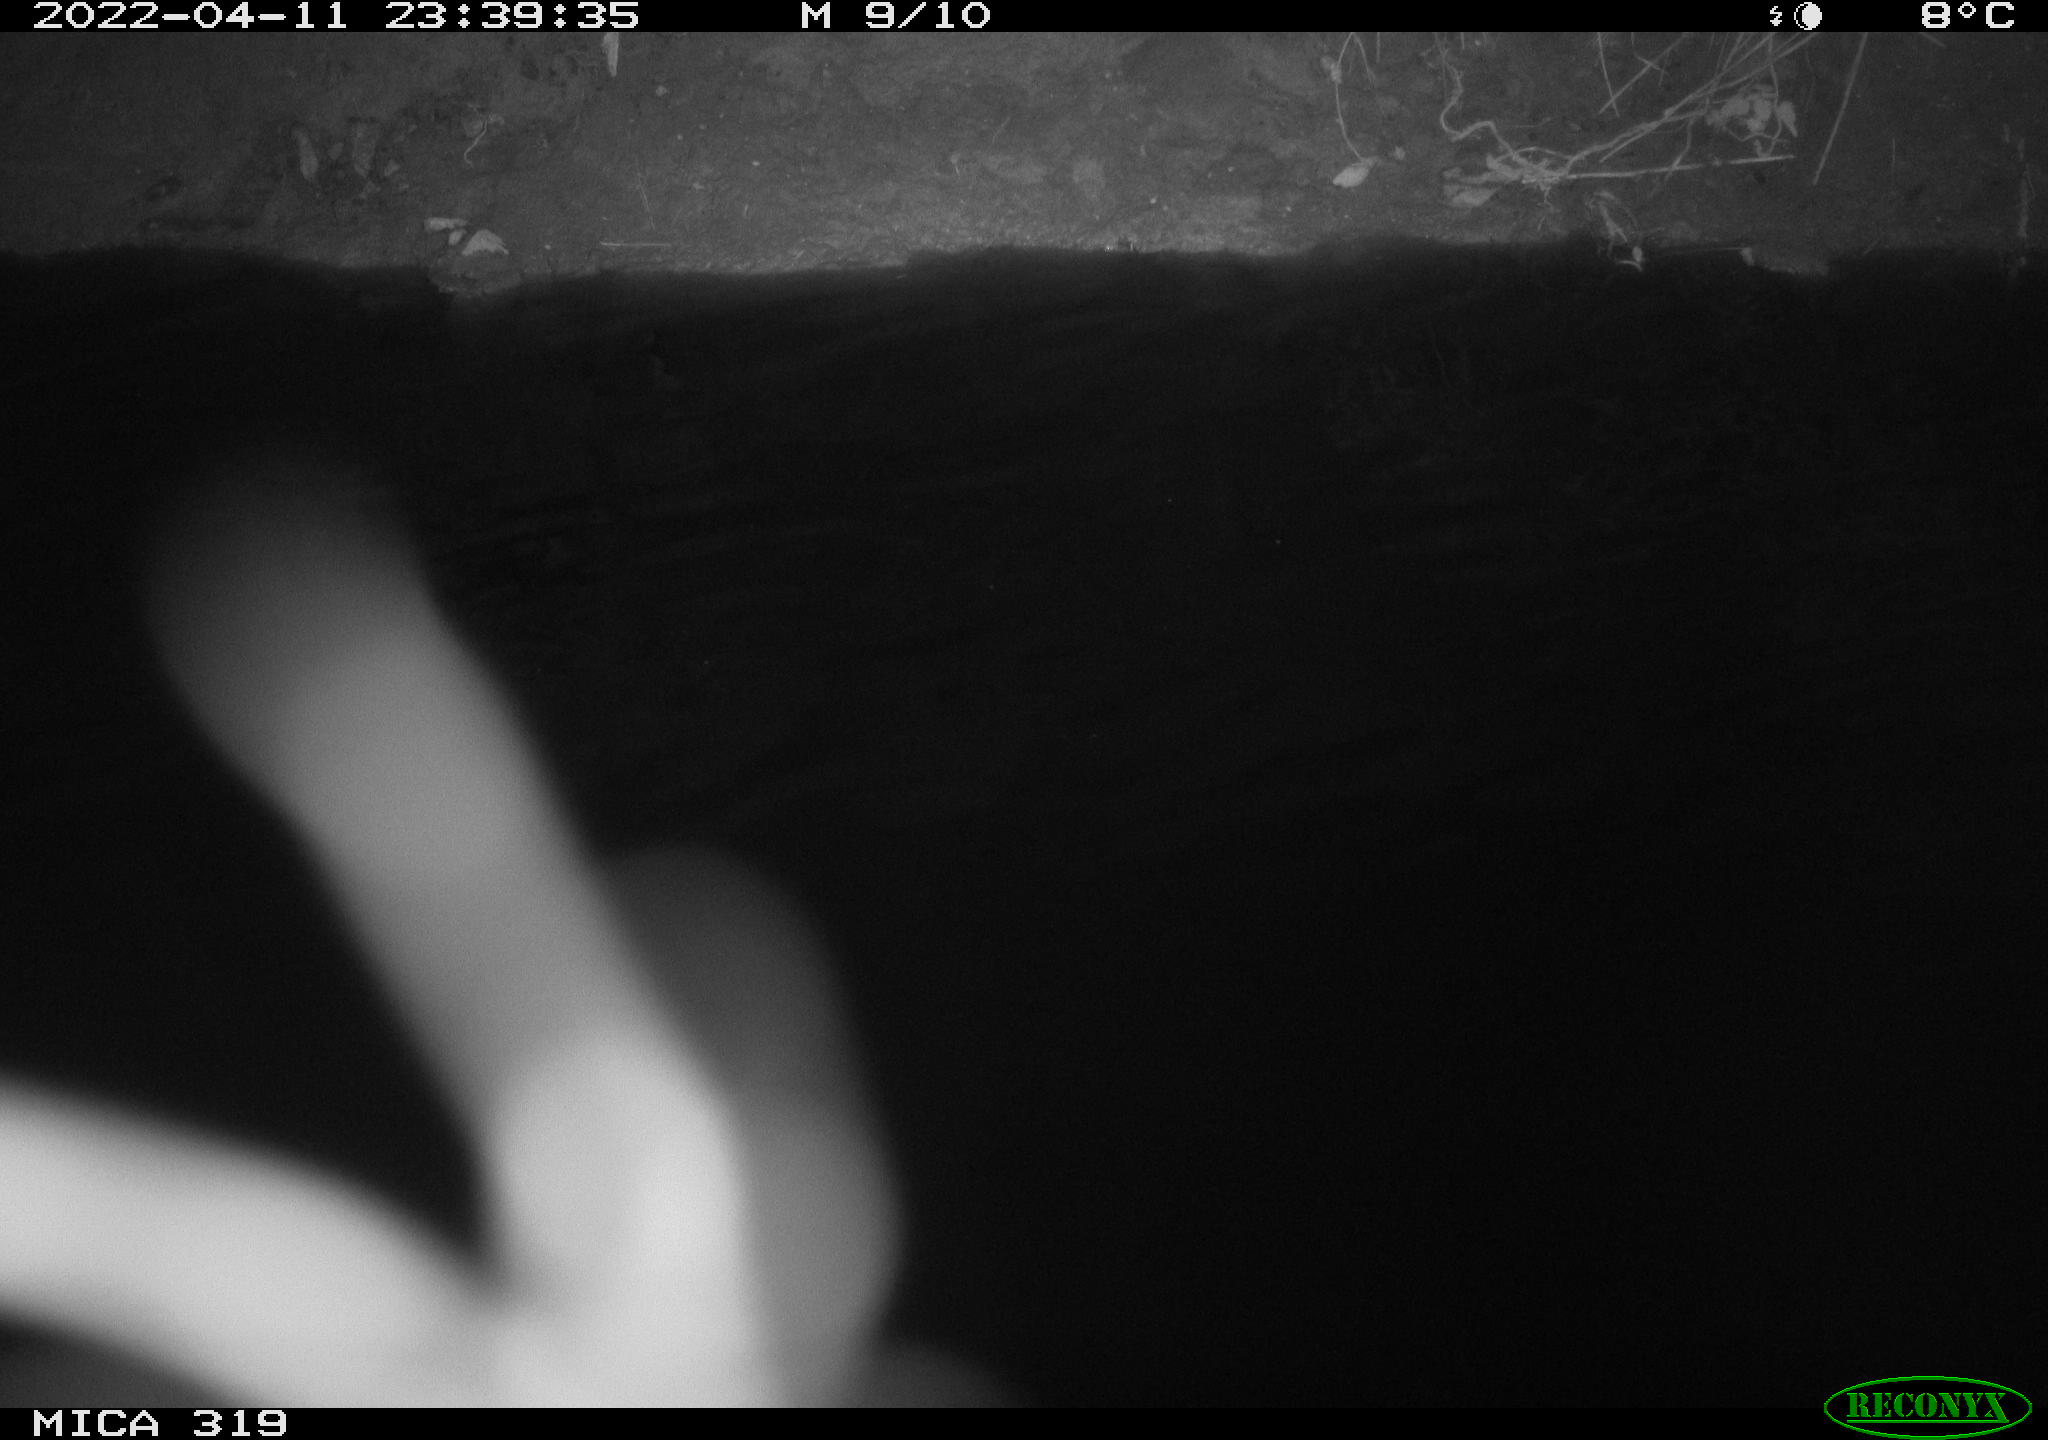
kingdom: Animalia
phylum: Chordata
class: Aves
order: Anseriformes
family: Anatidae
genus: Anas
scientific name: Anas platyrhynchos
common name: Mallard
